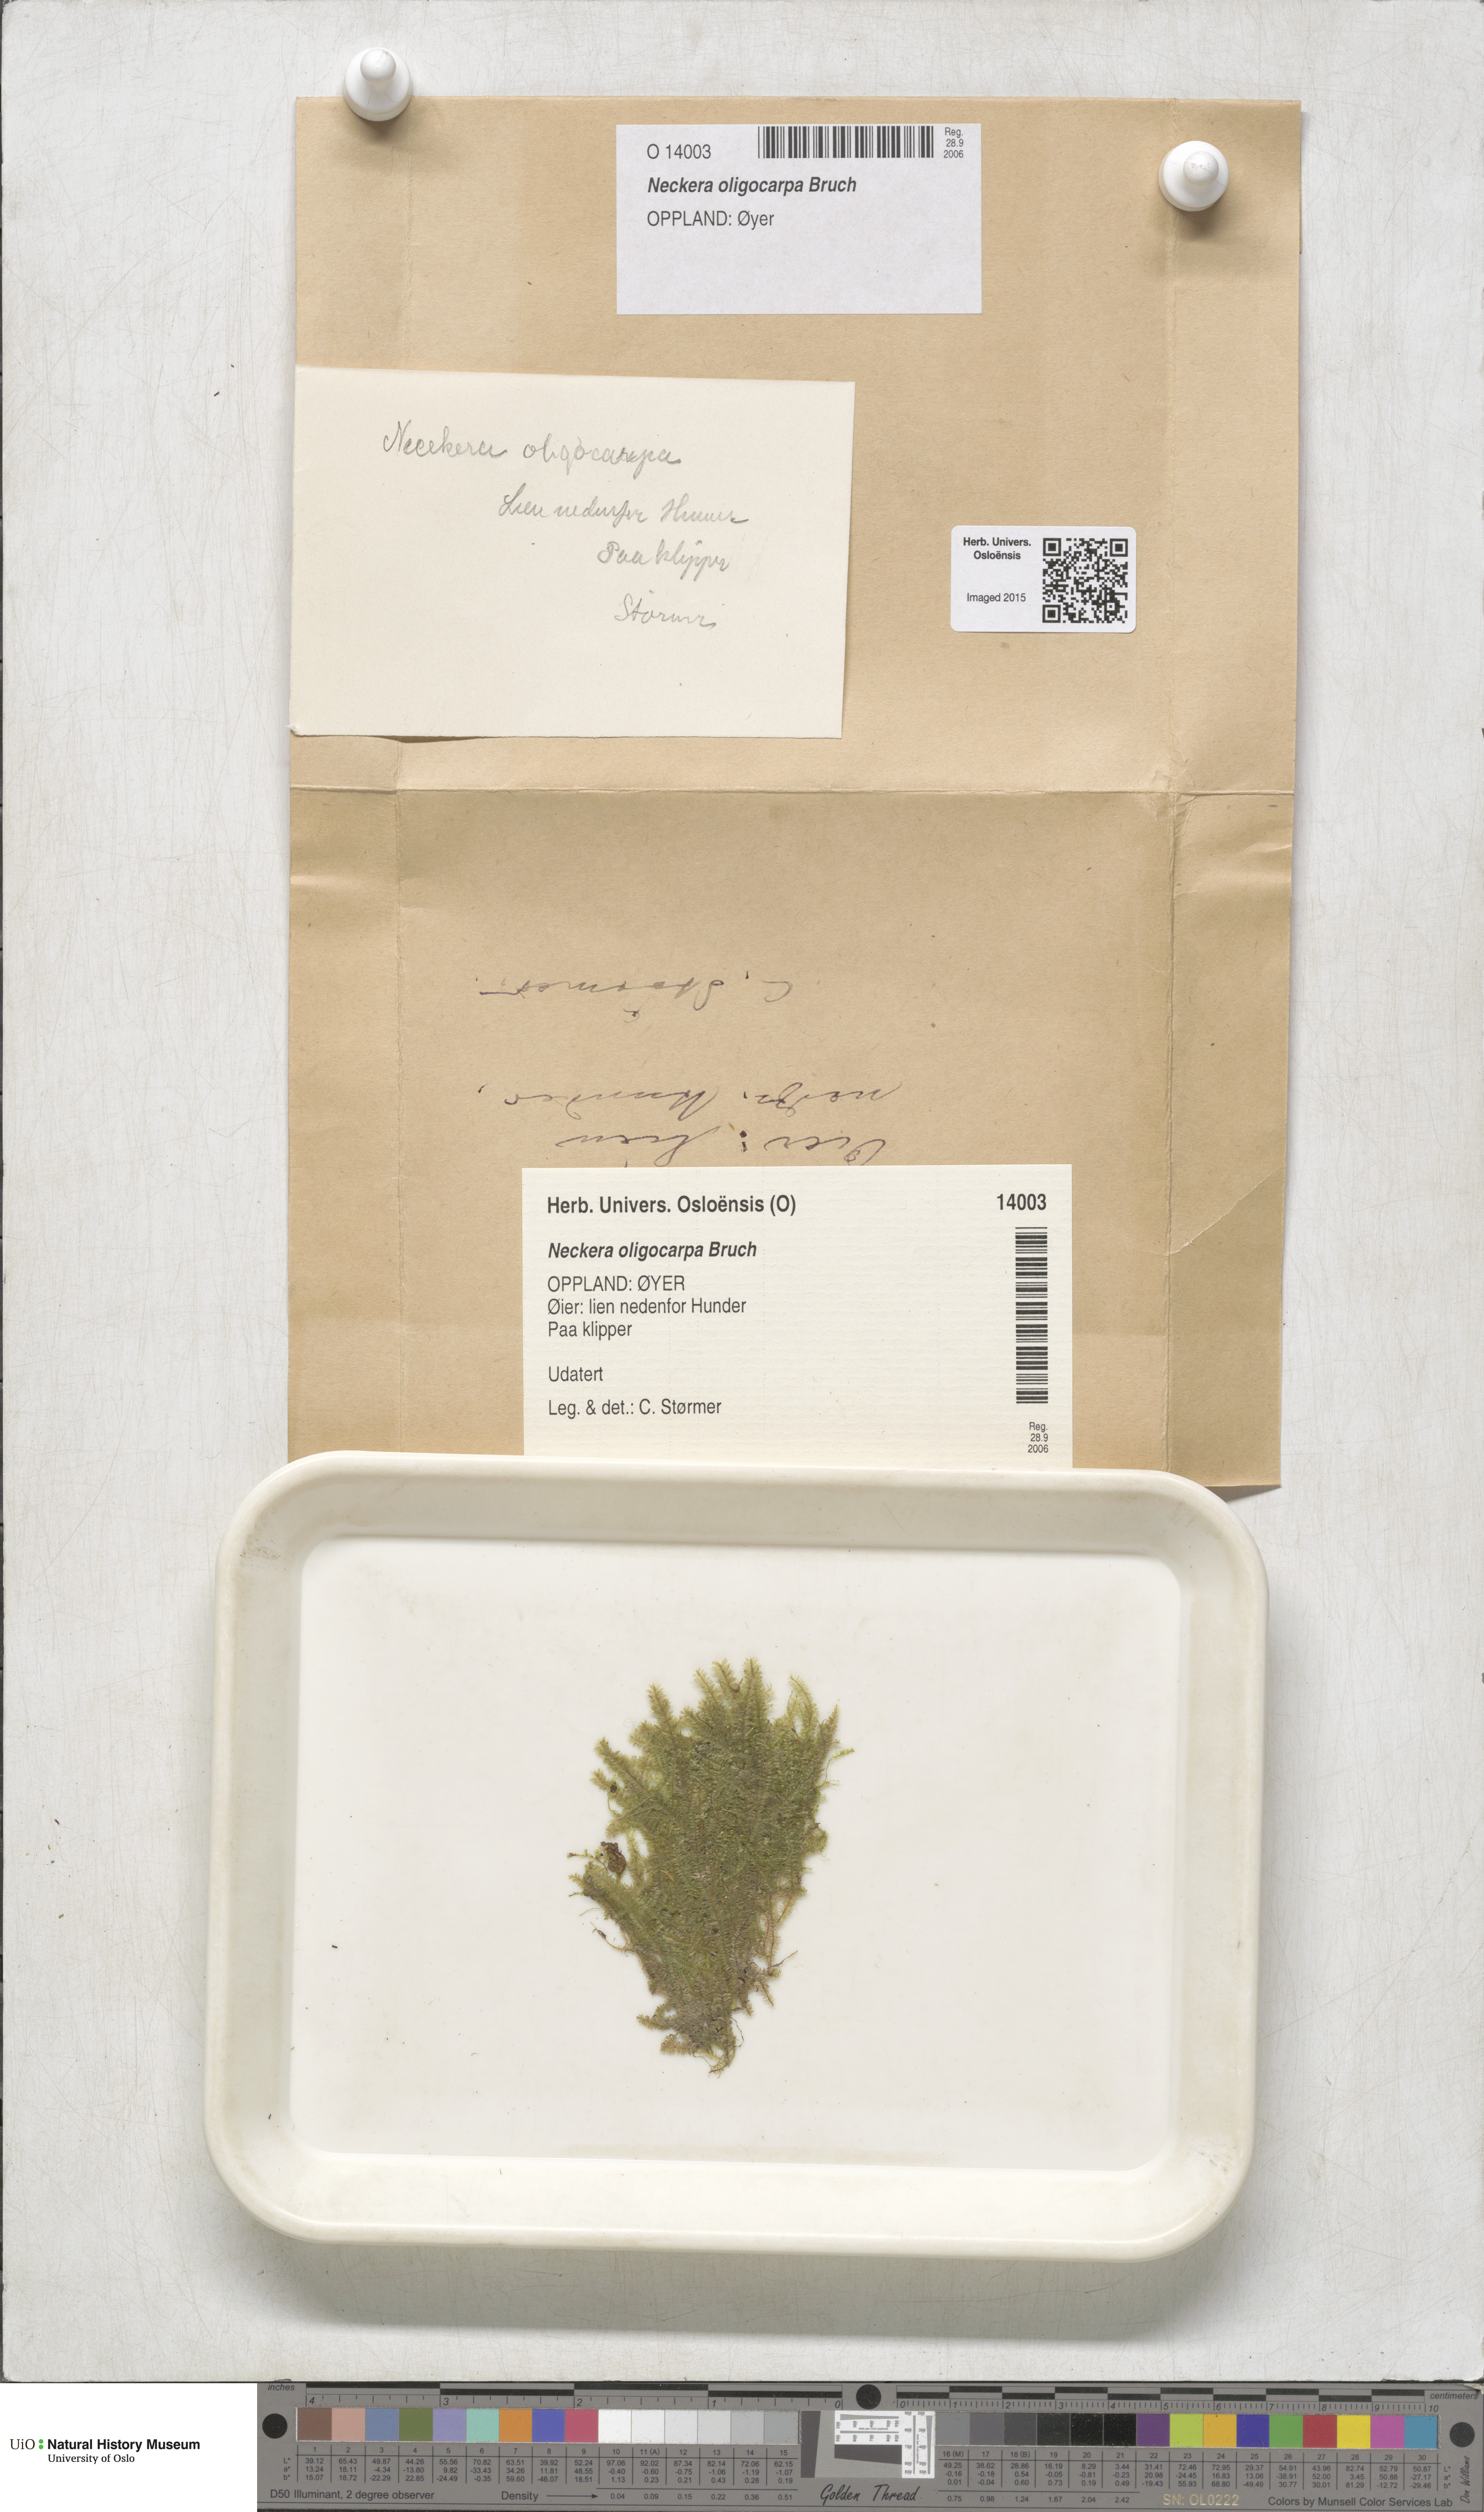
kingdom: Plantae
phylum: Bryophyta
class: Bryopsida
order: Hypnales
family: Neckeraceae
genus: Neckera
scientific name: Neckera oligocarpa
